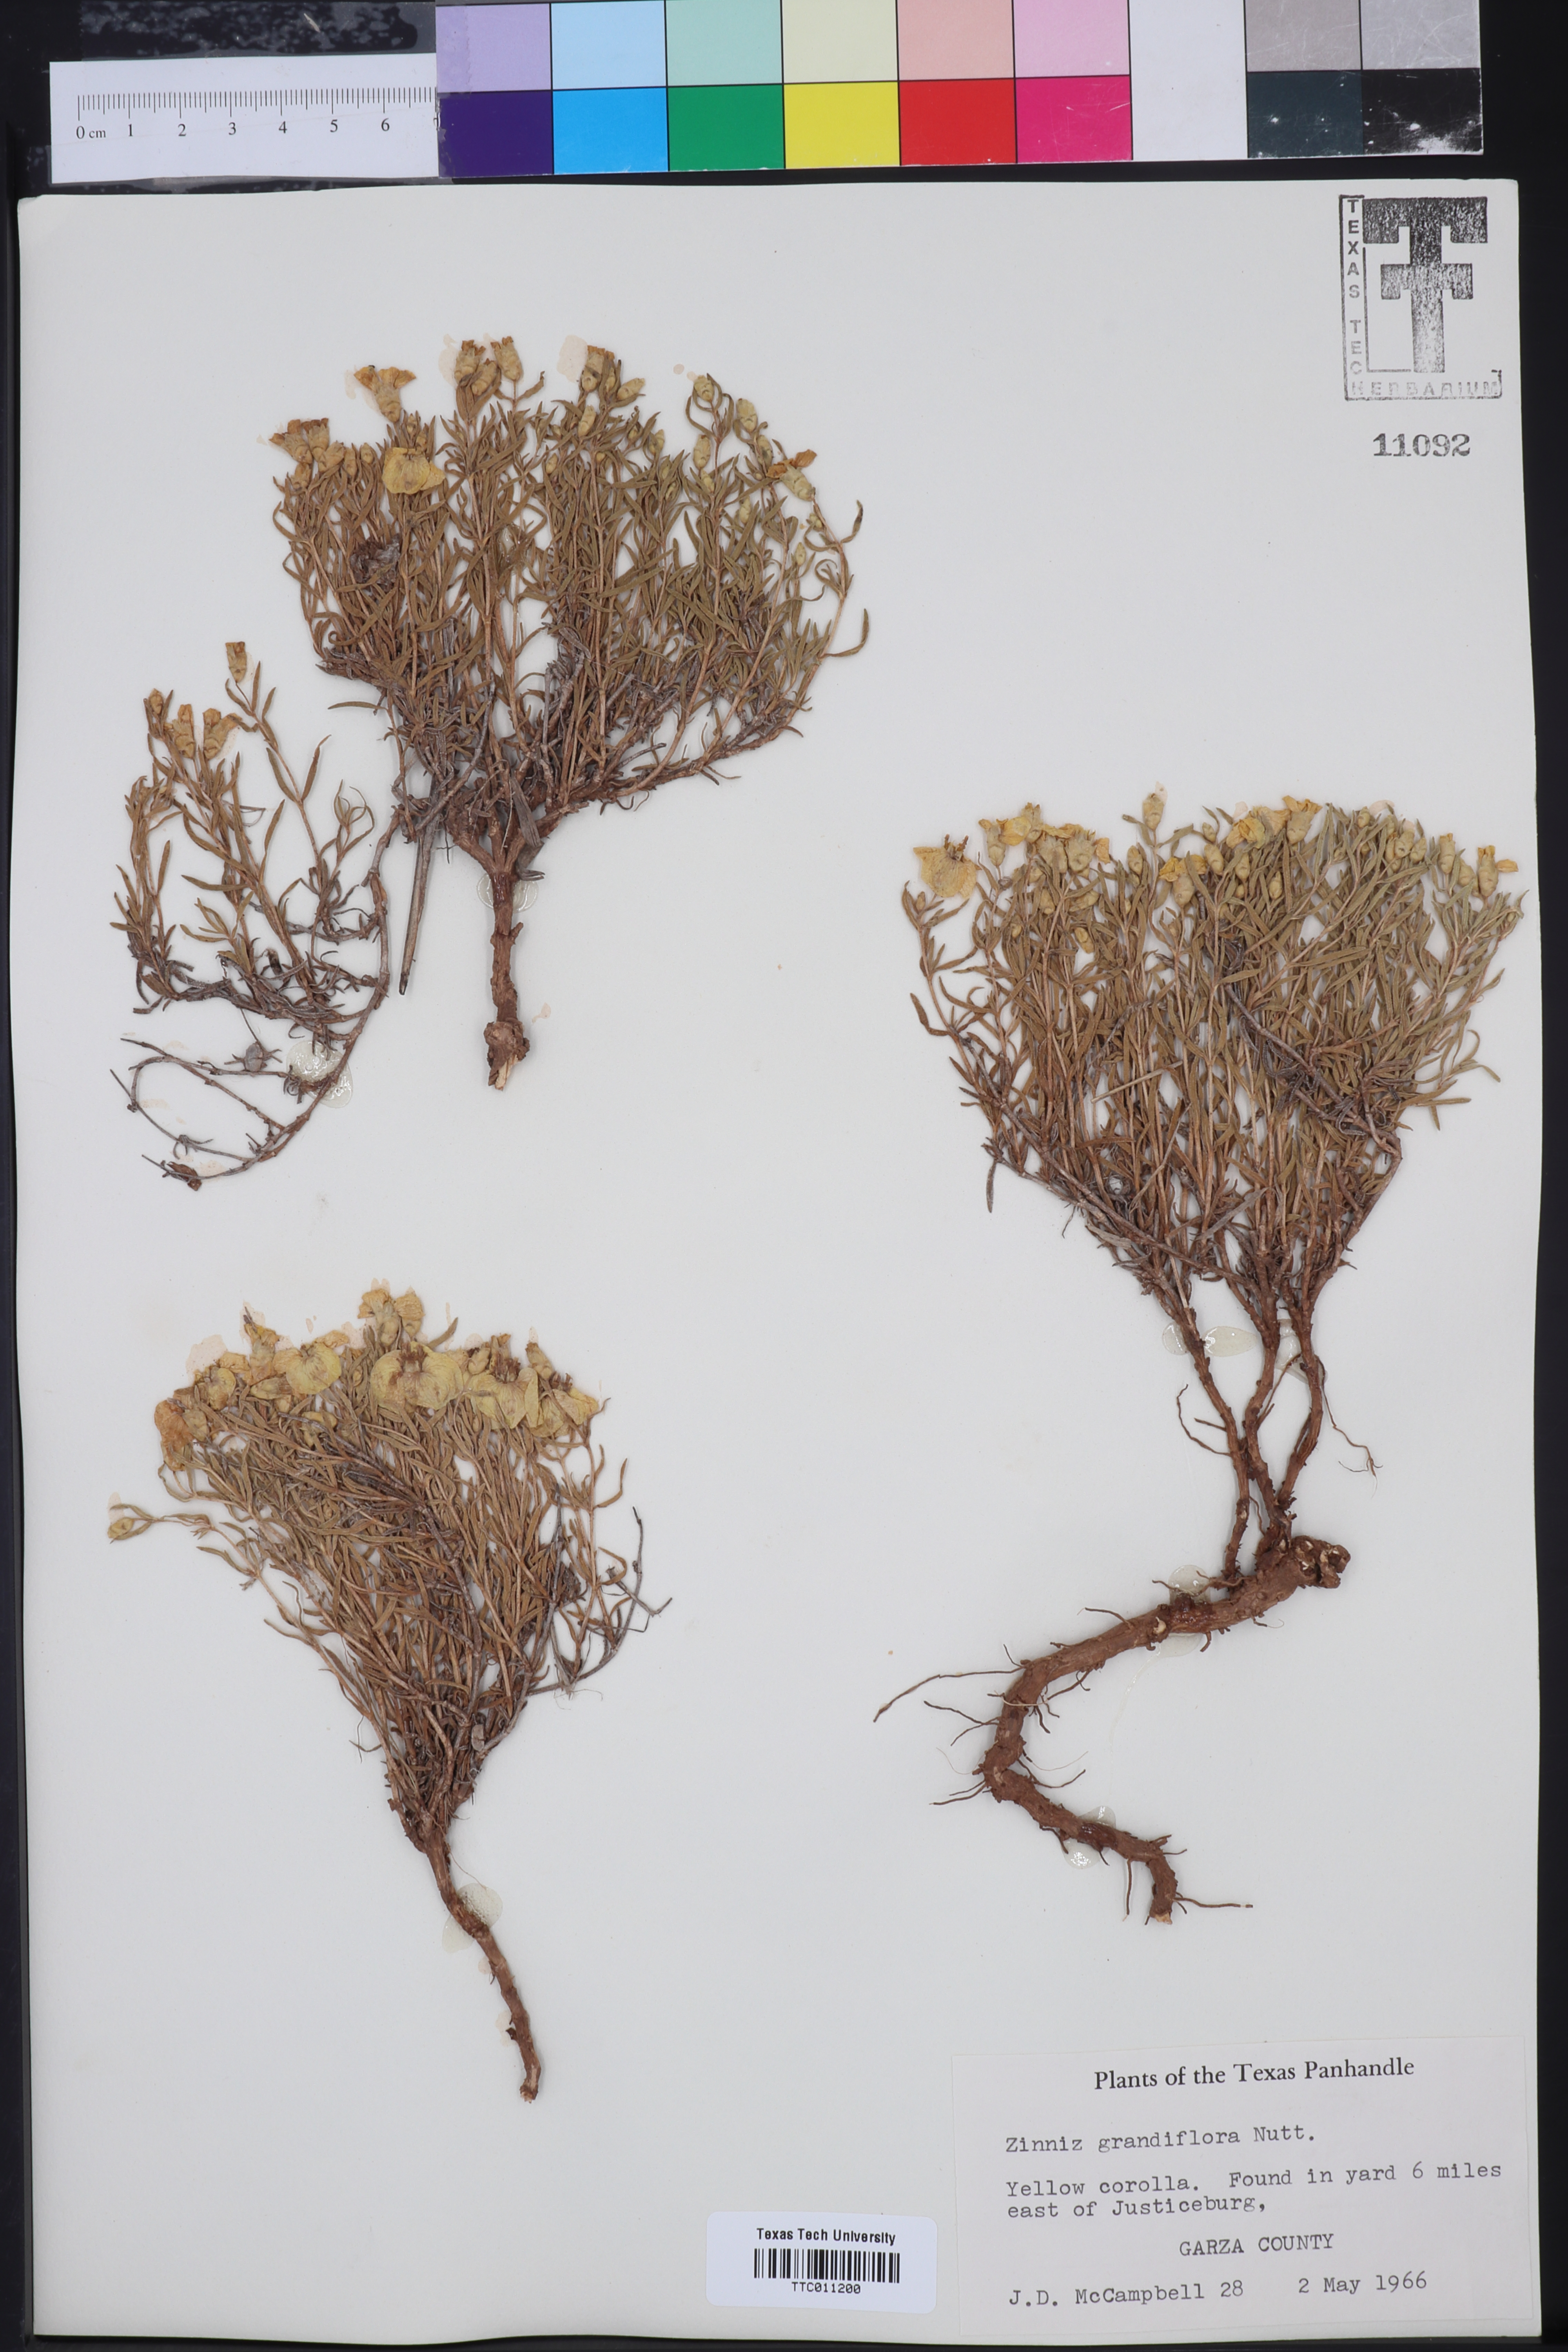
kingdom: Plantae
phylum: Tracheophyta
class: Magnoliopsida
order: Asterales
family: Asteraceae
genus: Zinnia
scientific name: Zinnia grandiflora
